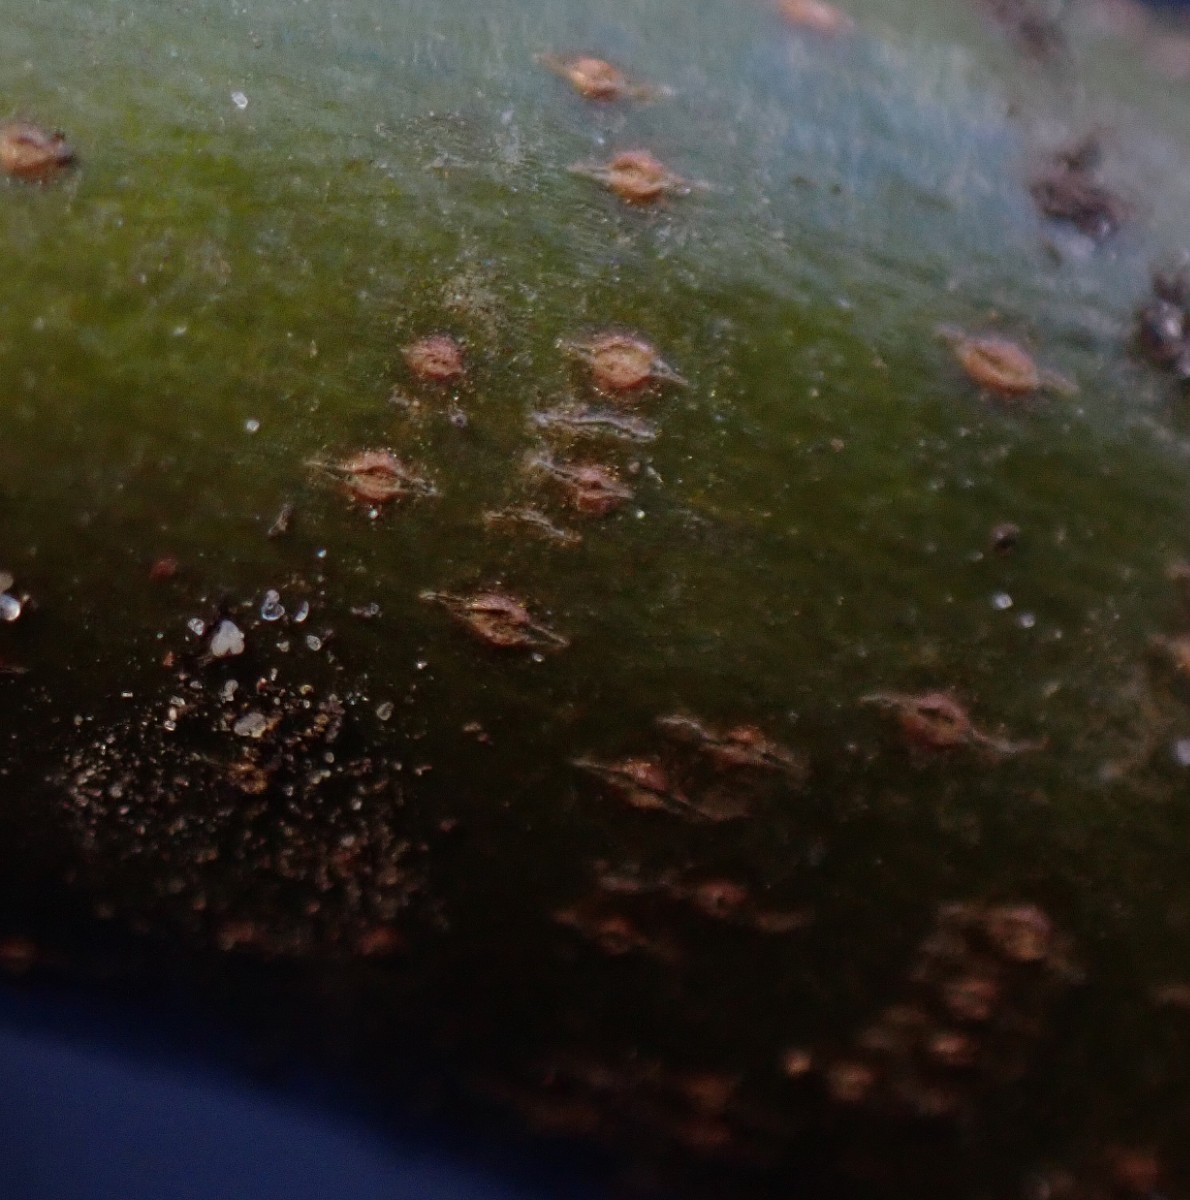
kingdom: Fungi
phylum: Ascomycota
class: Sordariomycetes
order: Diaporthales
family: Valsaceae
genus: Cytospora
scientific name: Cytospora platani
